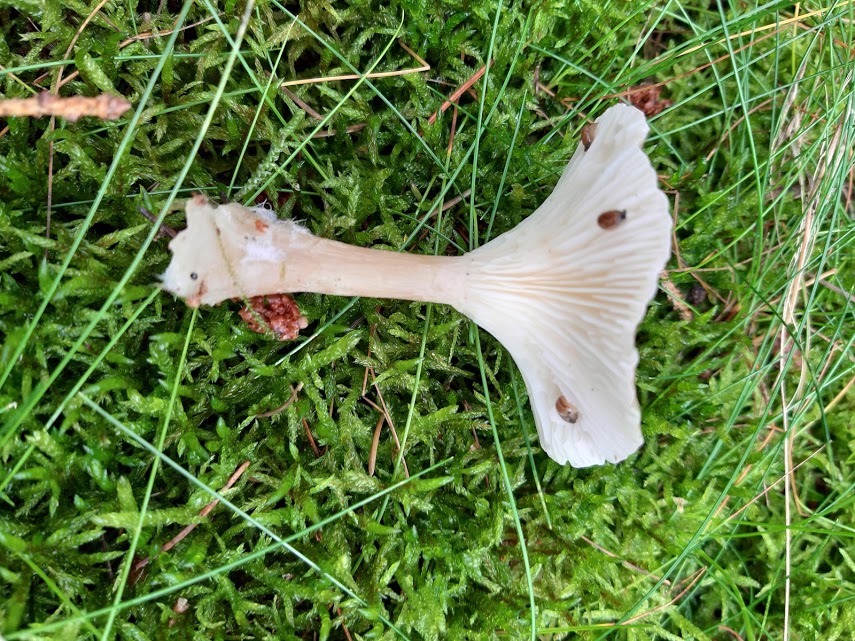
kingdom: Fungi
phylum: Basidiomycota
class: Agaricomycetes
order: Agaricales
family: Tricholomataceae
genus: Infundibulicybe
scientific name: Infundibulicybe
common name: tragthat
